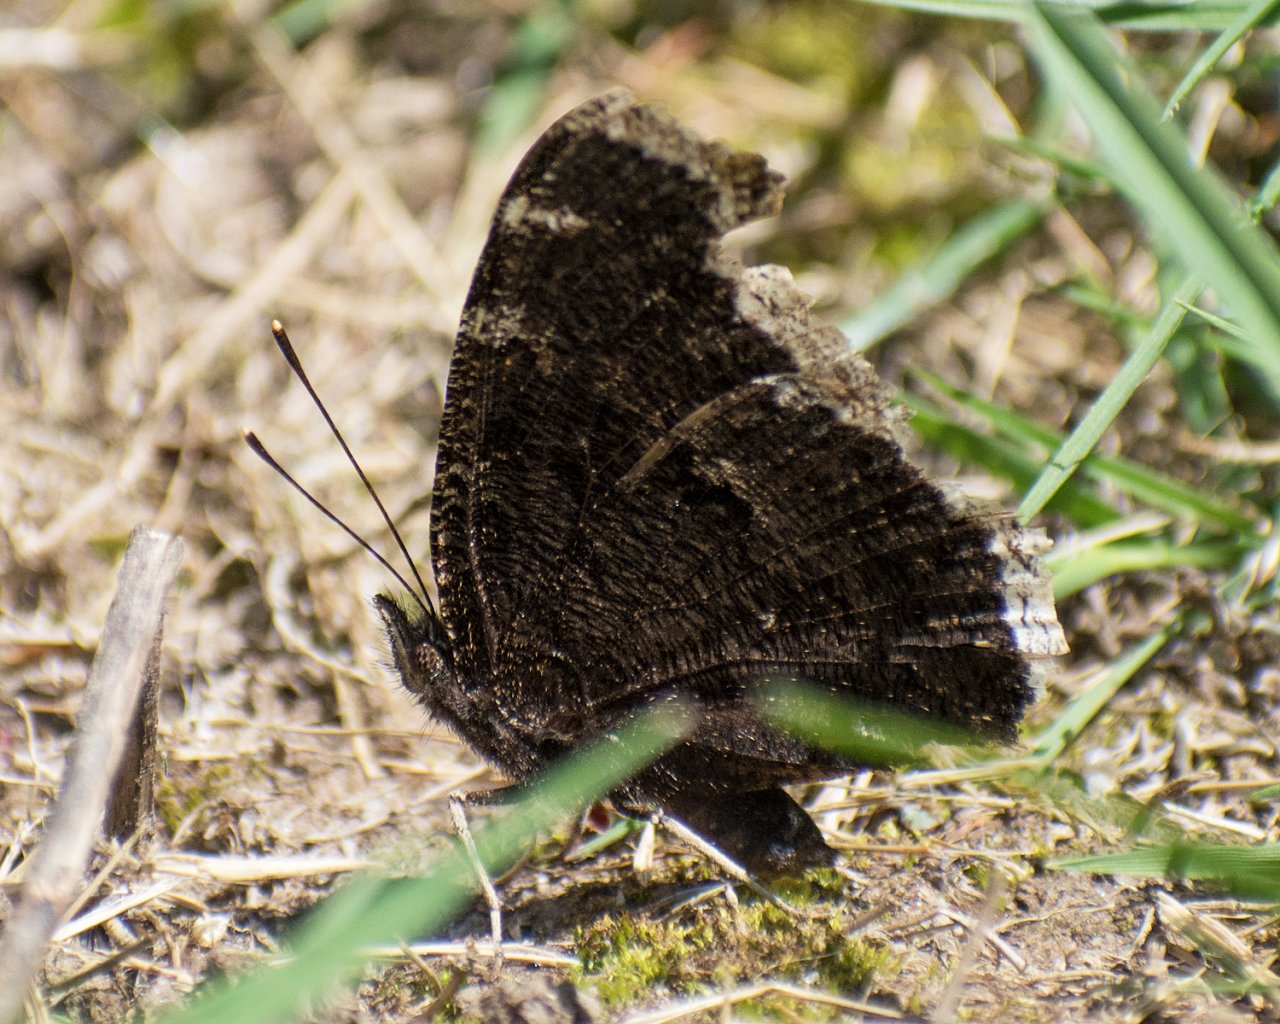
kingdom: Animalia
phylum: Arthropoda
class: Insecta
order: Lepidoptera
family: Nymphalidae
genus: Nymphalis
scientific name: Nymphalis antiopa
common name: Mourning Cloak
